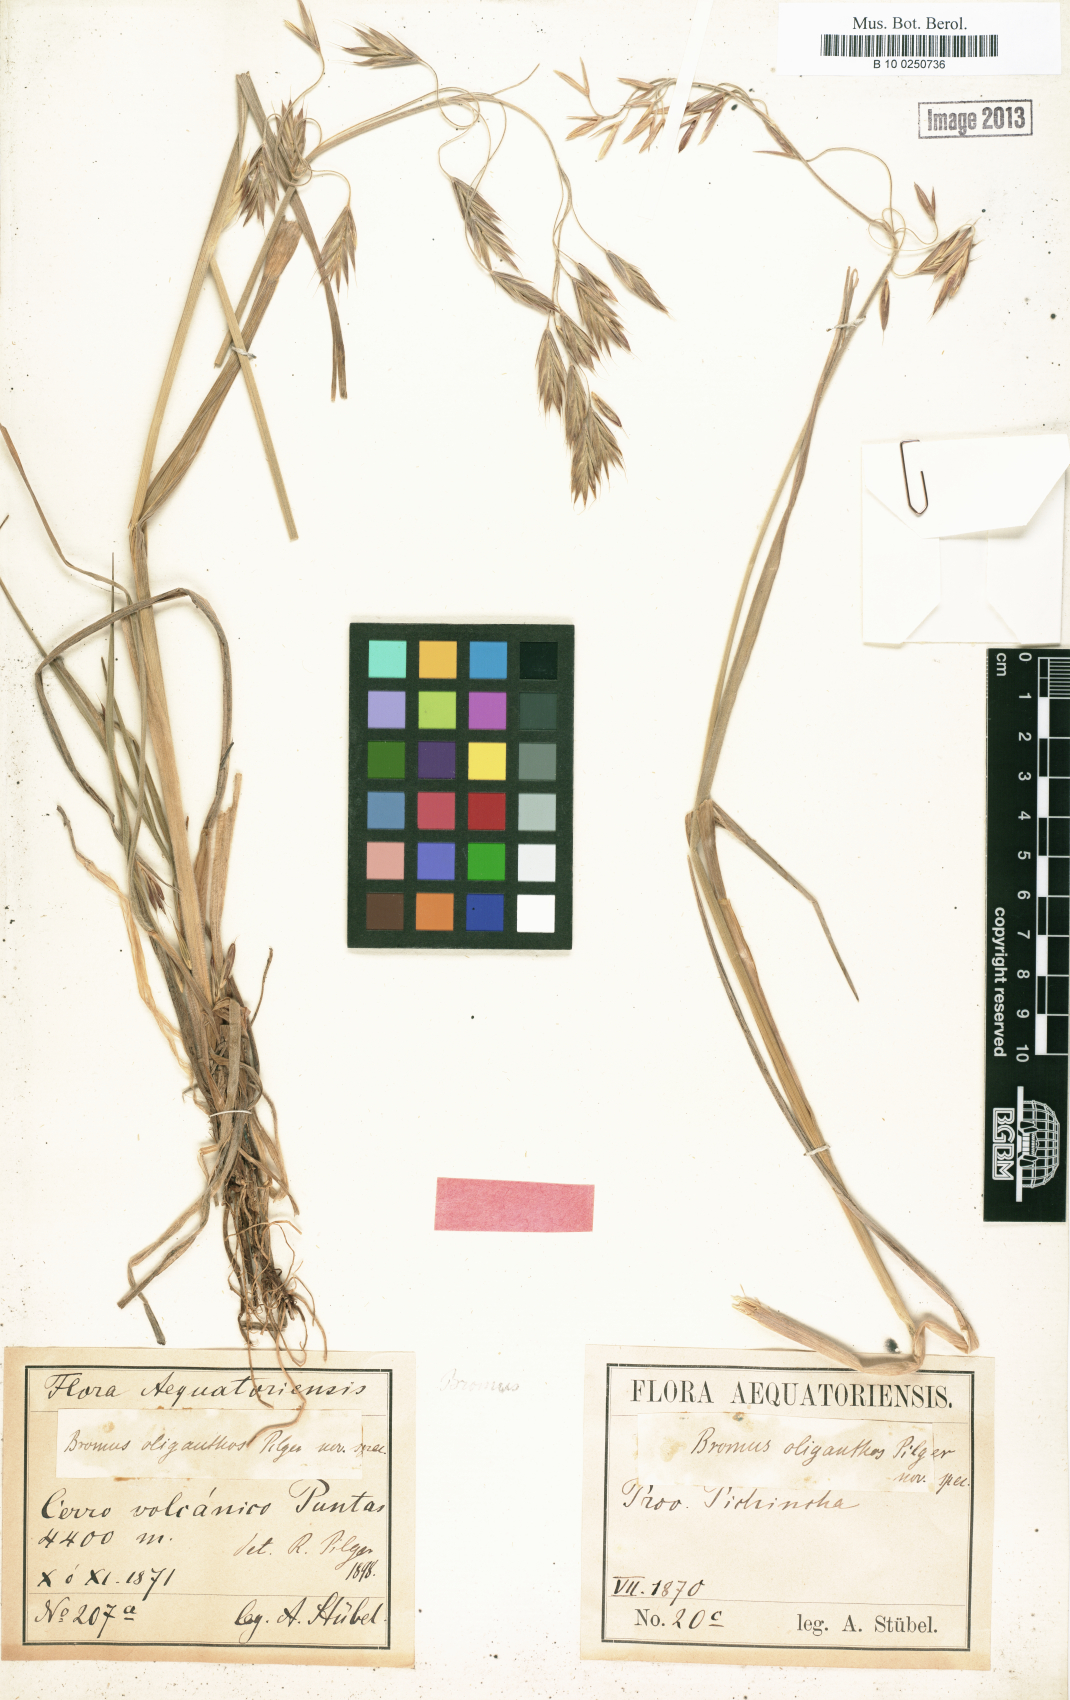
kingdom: Plantae
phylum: Tracheophyta
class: Liliopsida
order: Poales
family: Poaceae
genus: Bromus
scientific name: Bromus lanatus
